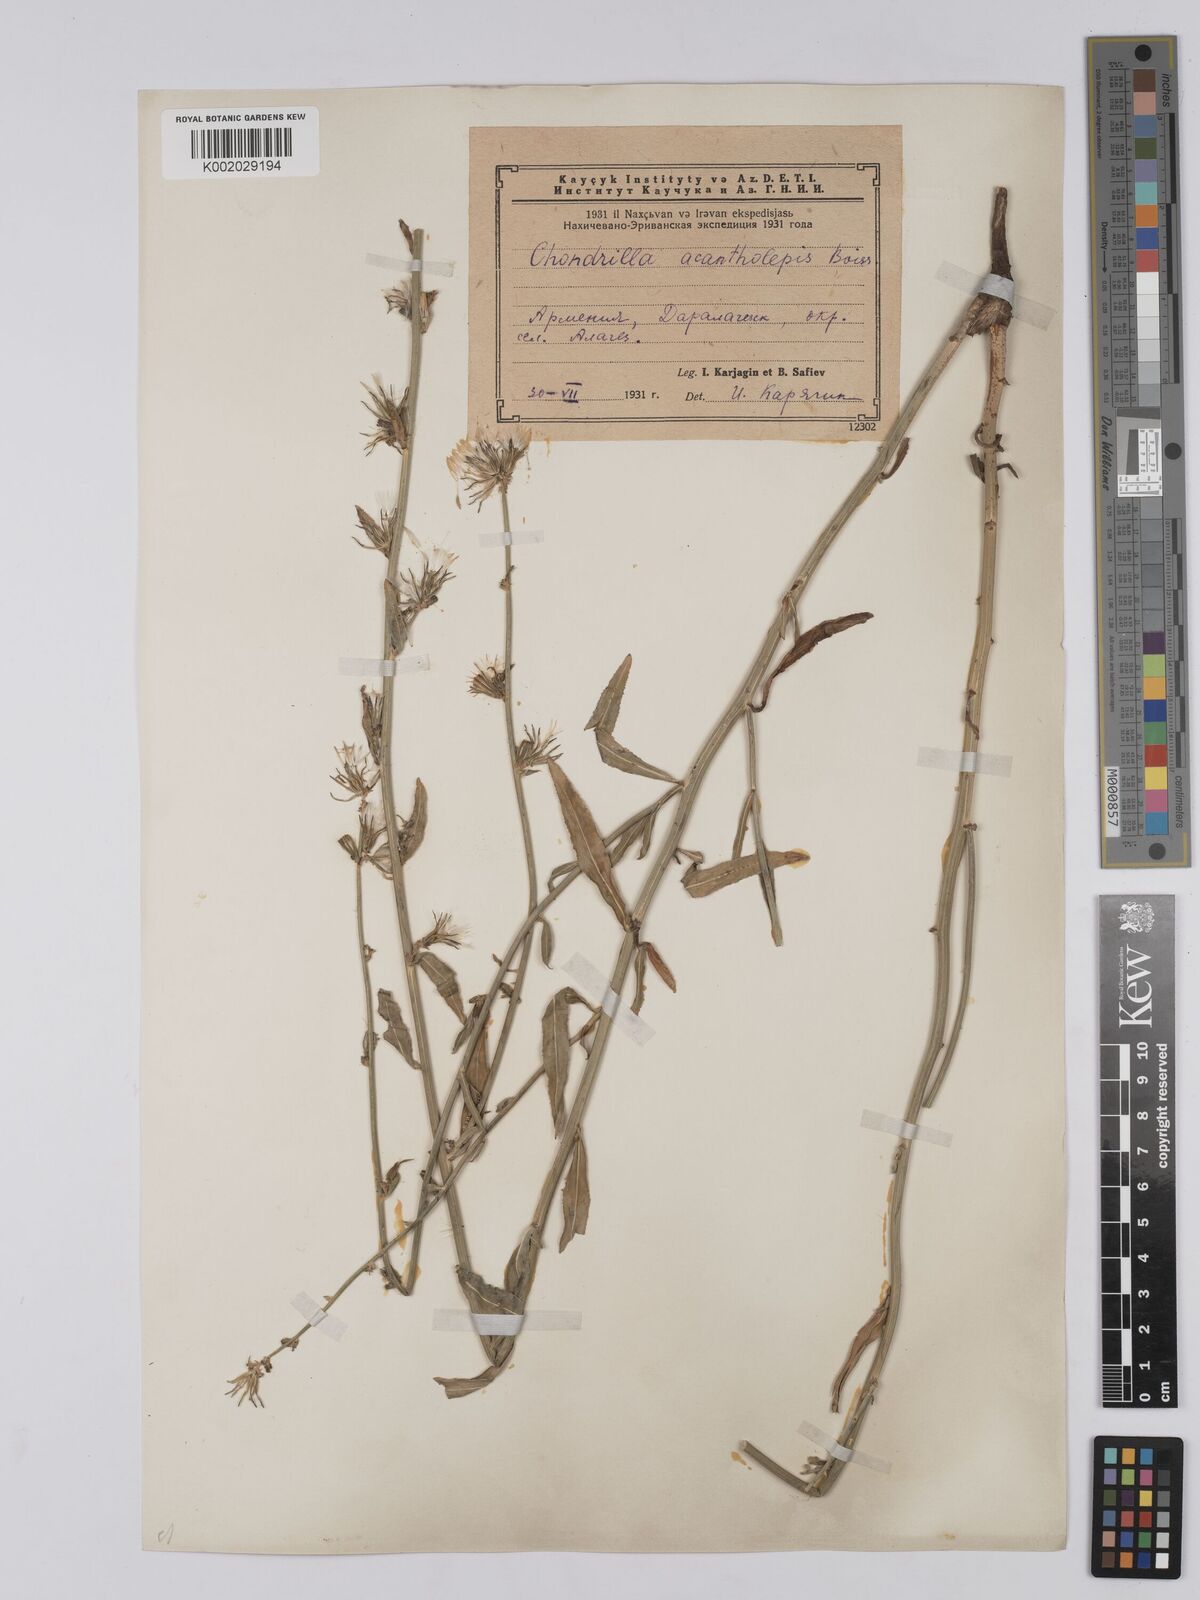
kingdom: Plantae
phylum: Tracheophyta
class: Magnoliopsida
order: Asterales
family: Asteraceae
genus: Chondrilla
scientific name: Chondrilla juncea
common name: Skeleton weed
